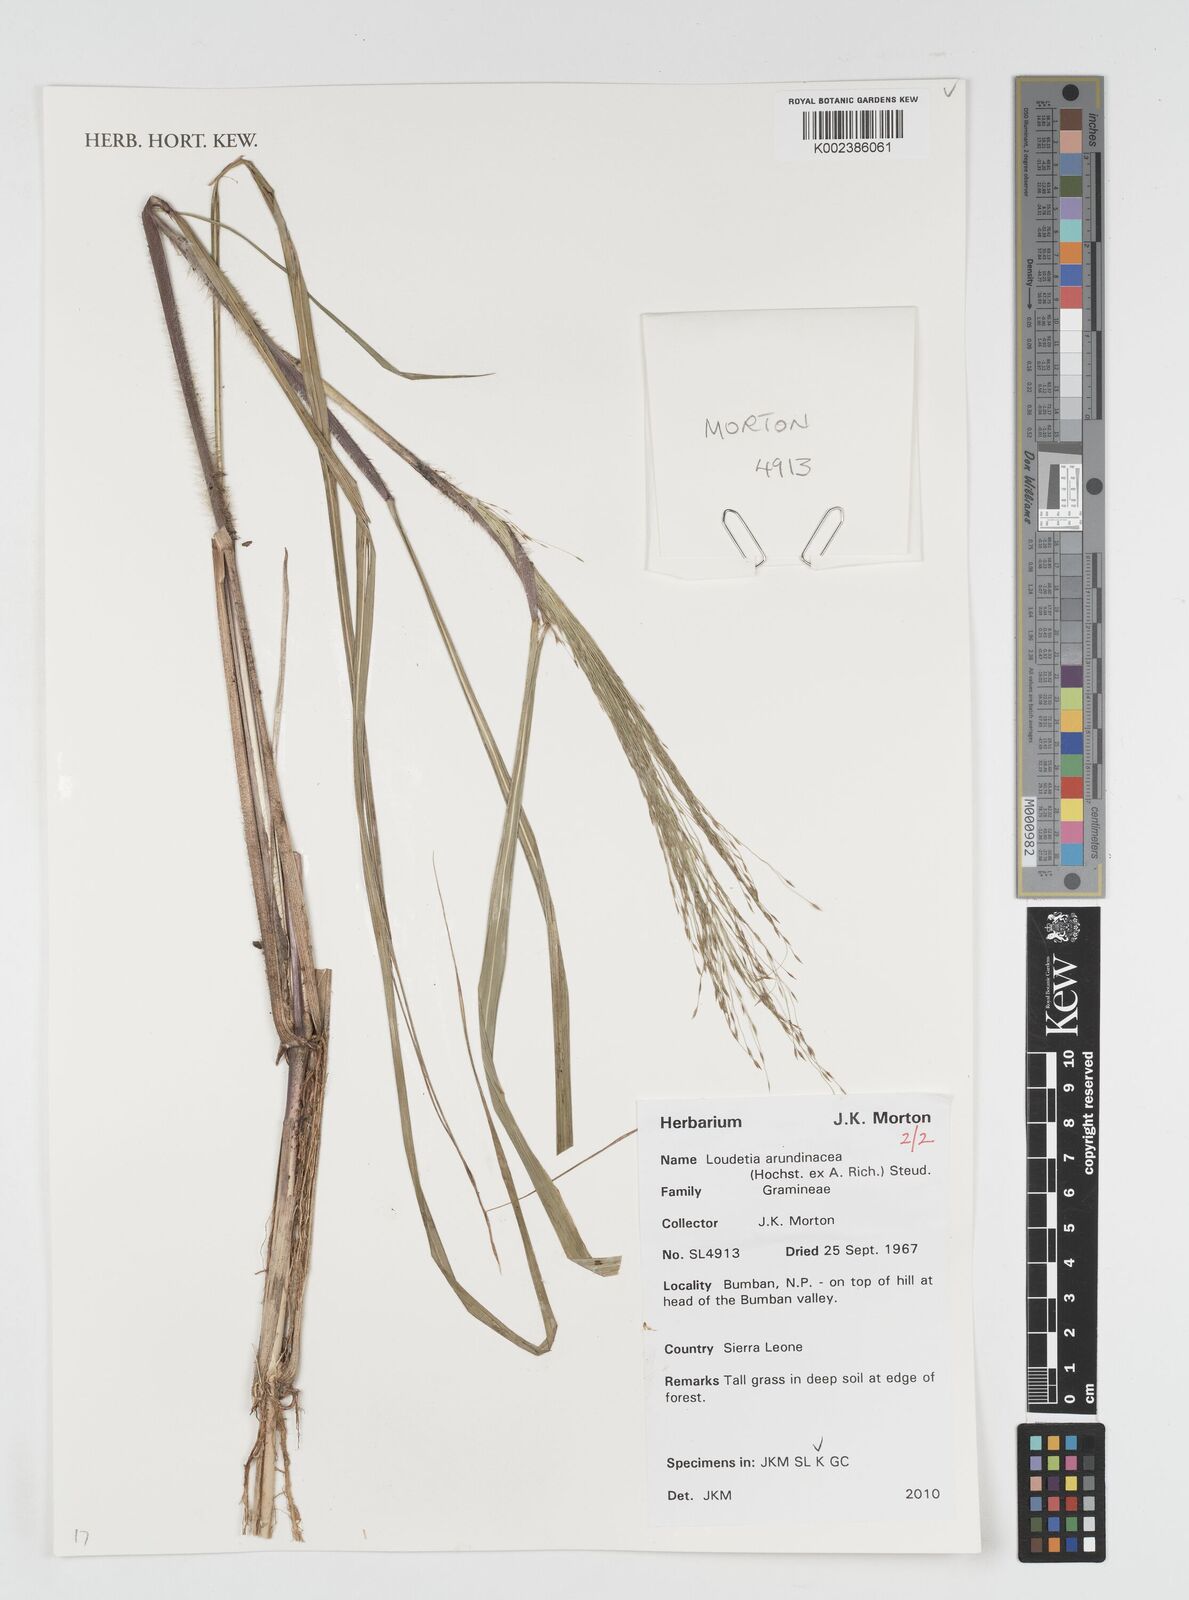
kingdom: Plantae
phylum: Tracheophyta
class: Liliopsida
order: Poales
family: Poaceae
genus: Loudetia
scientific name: Loudetia arundinacea
